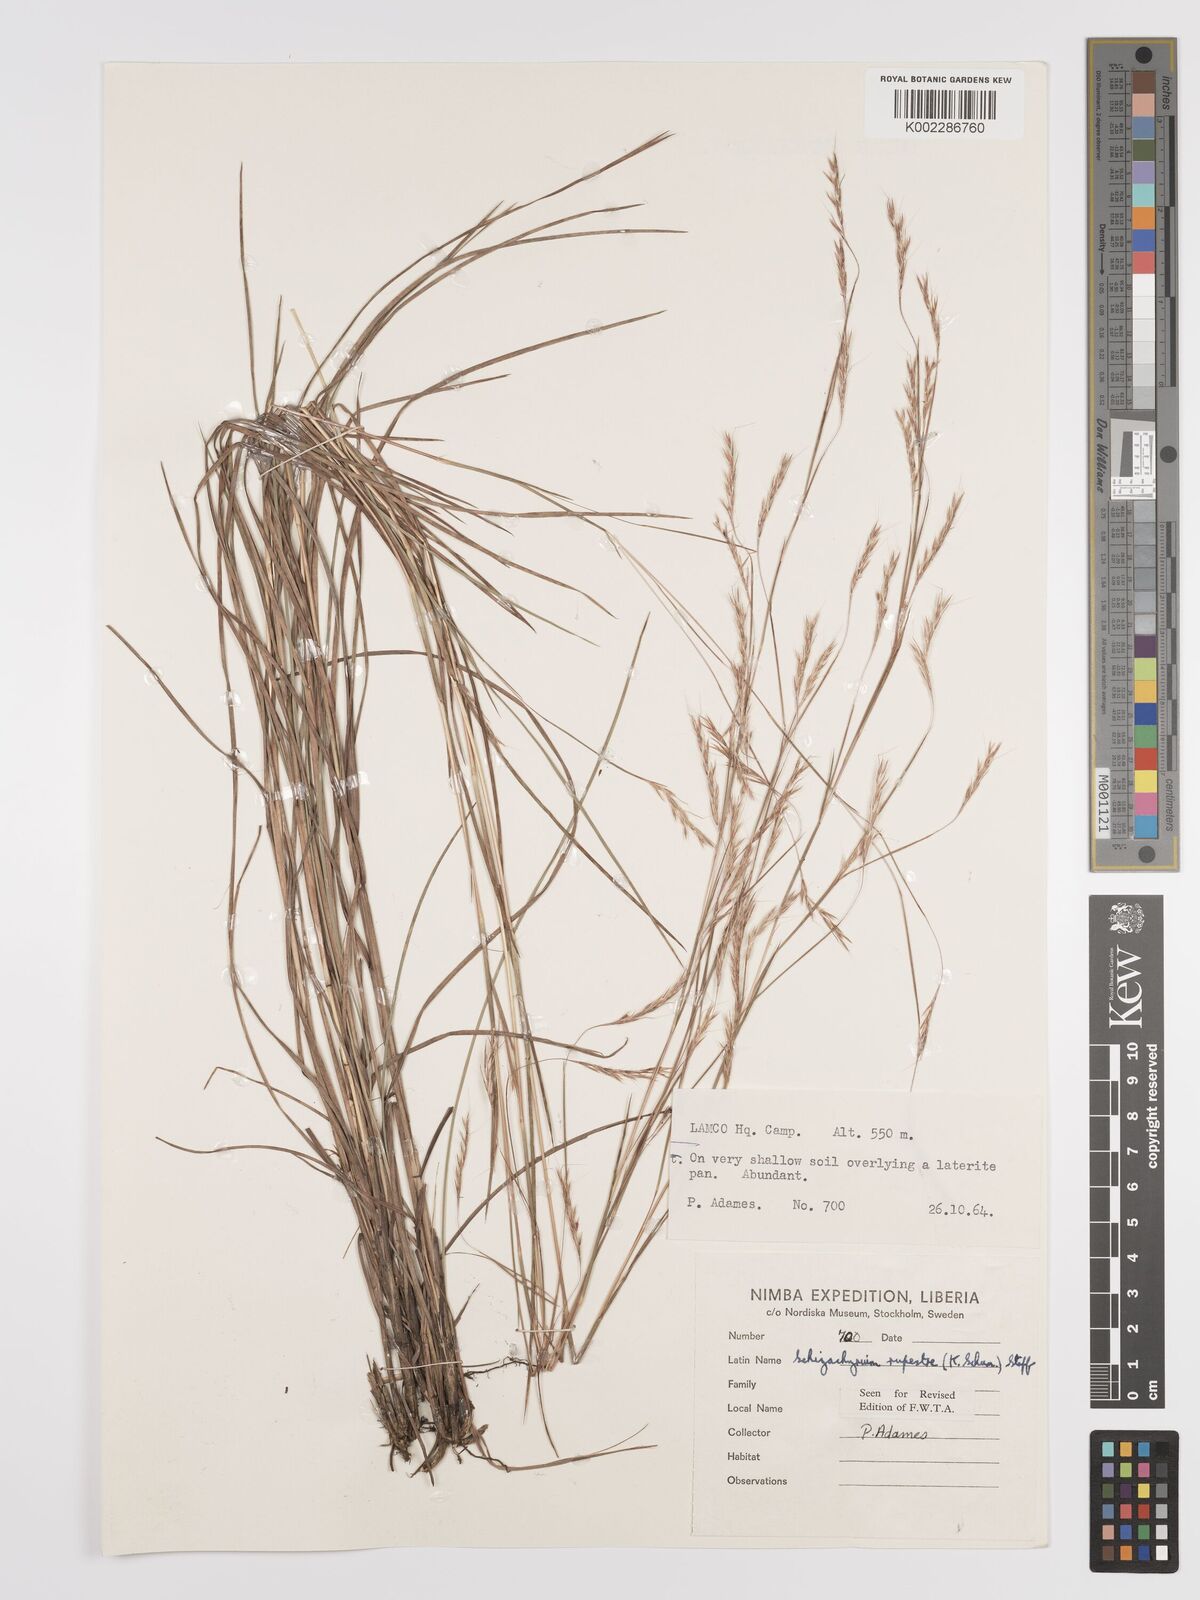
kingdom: Plantae
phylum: Tracheophyta
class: Liliopsida
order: Poales
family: Poaceae
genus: Andropogon
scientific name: Andropogon rupestris
